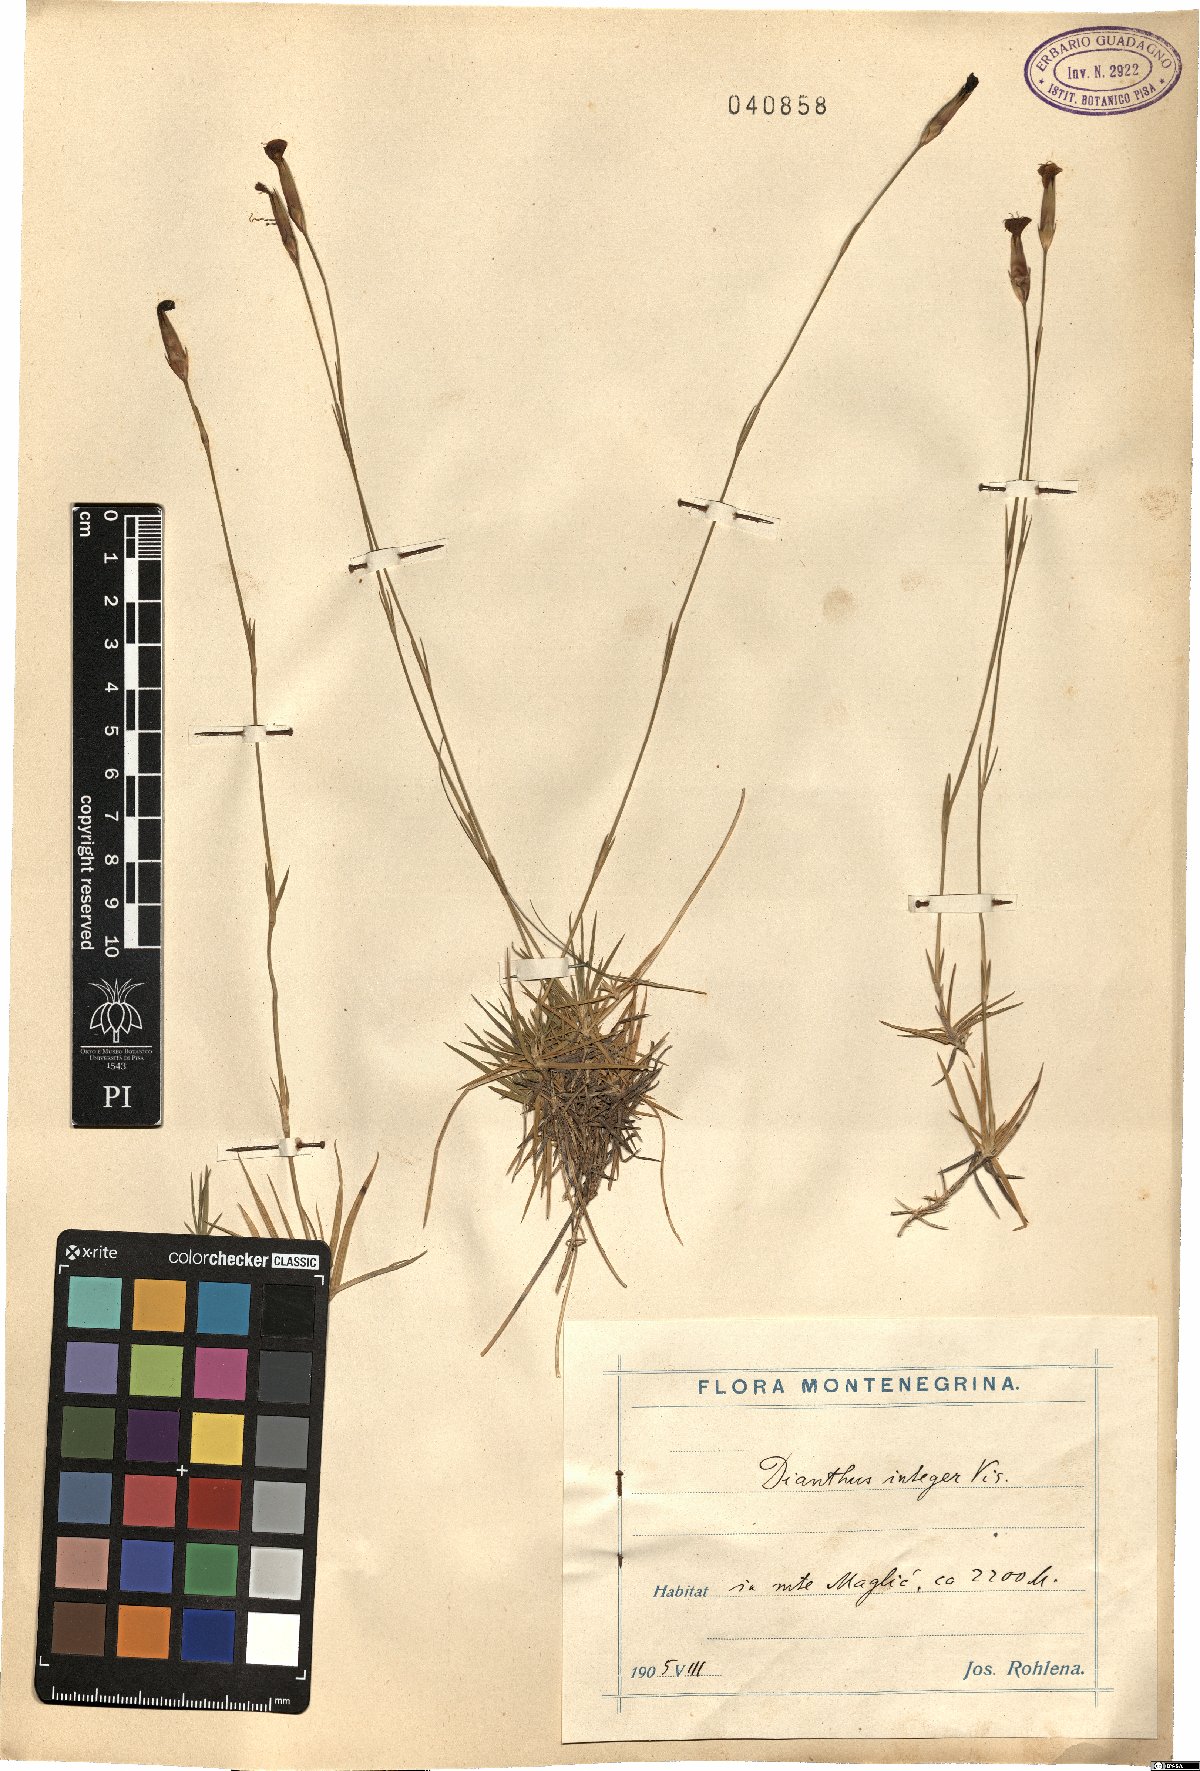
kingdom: Plantae
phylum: Tracheophyta
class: Magnoliopsida
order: Caryophyllales
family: Caryophyllaceae
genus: Dianthus
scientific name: Dianthus integer
